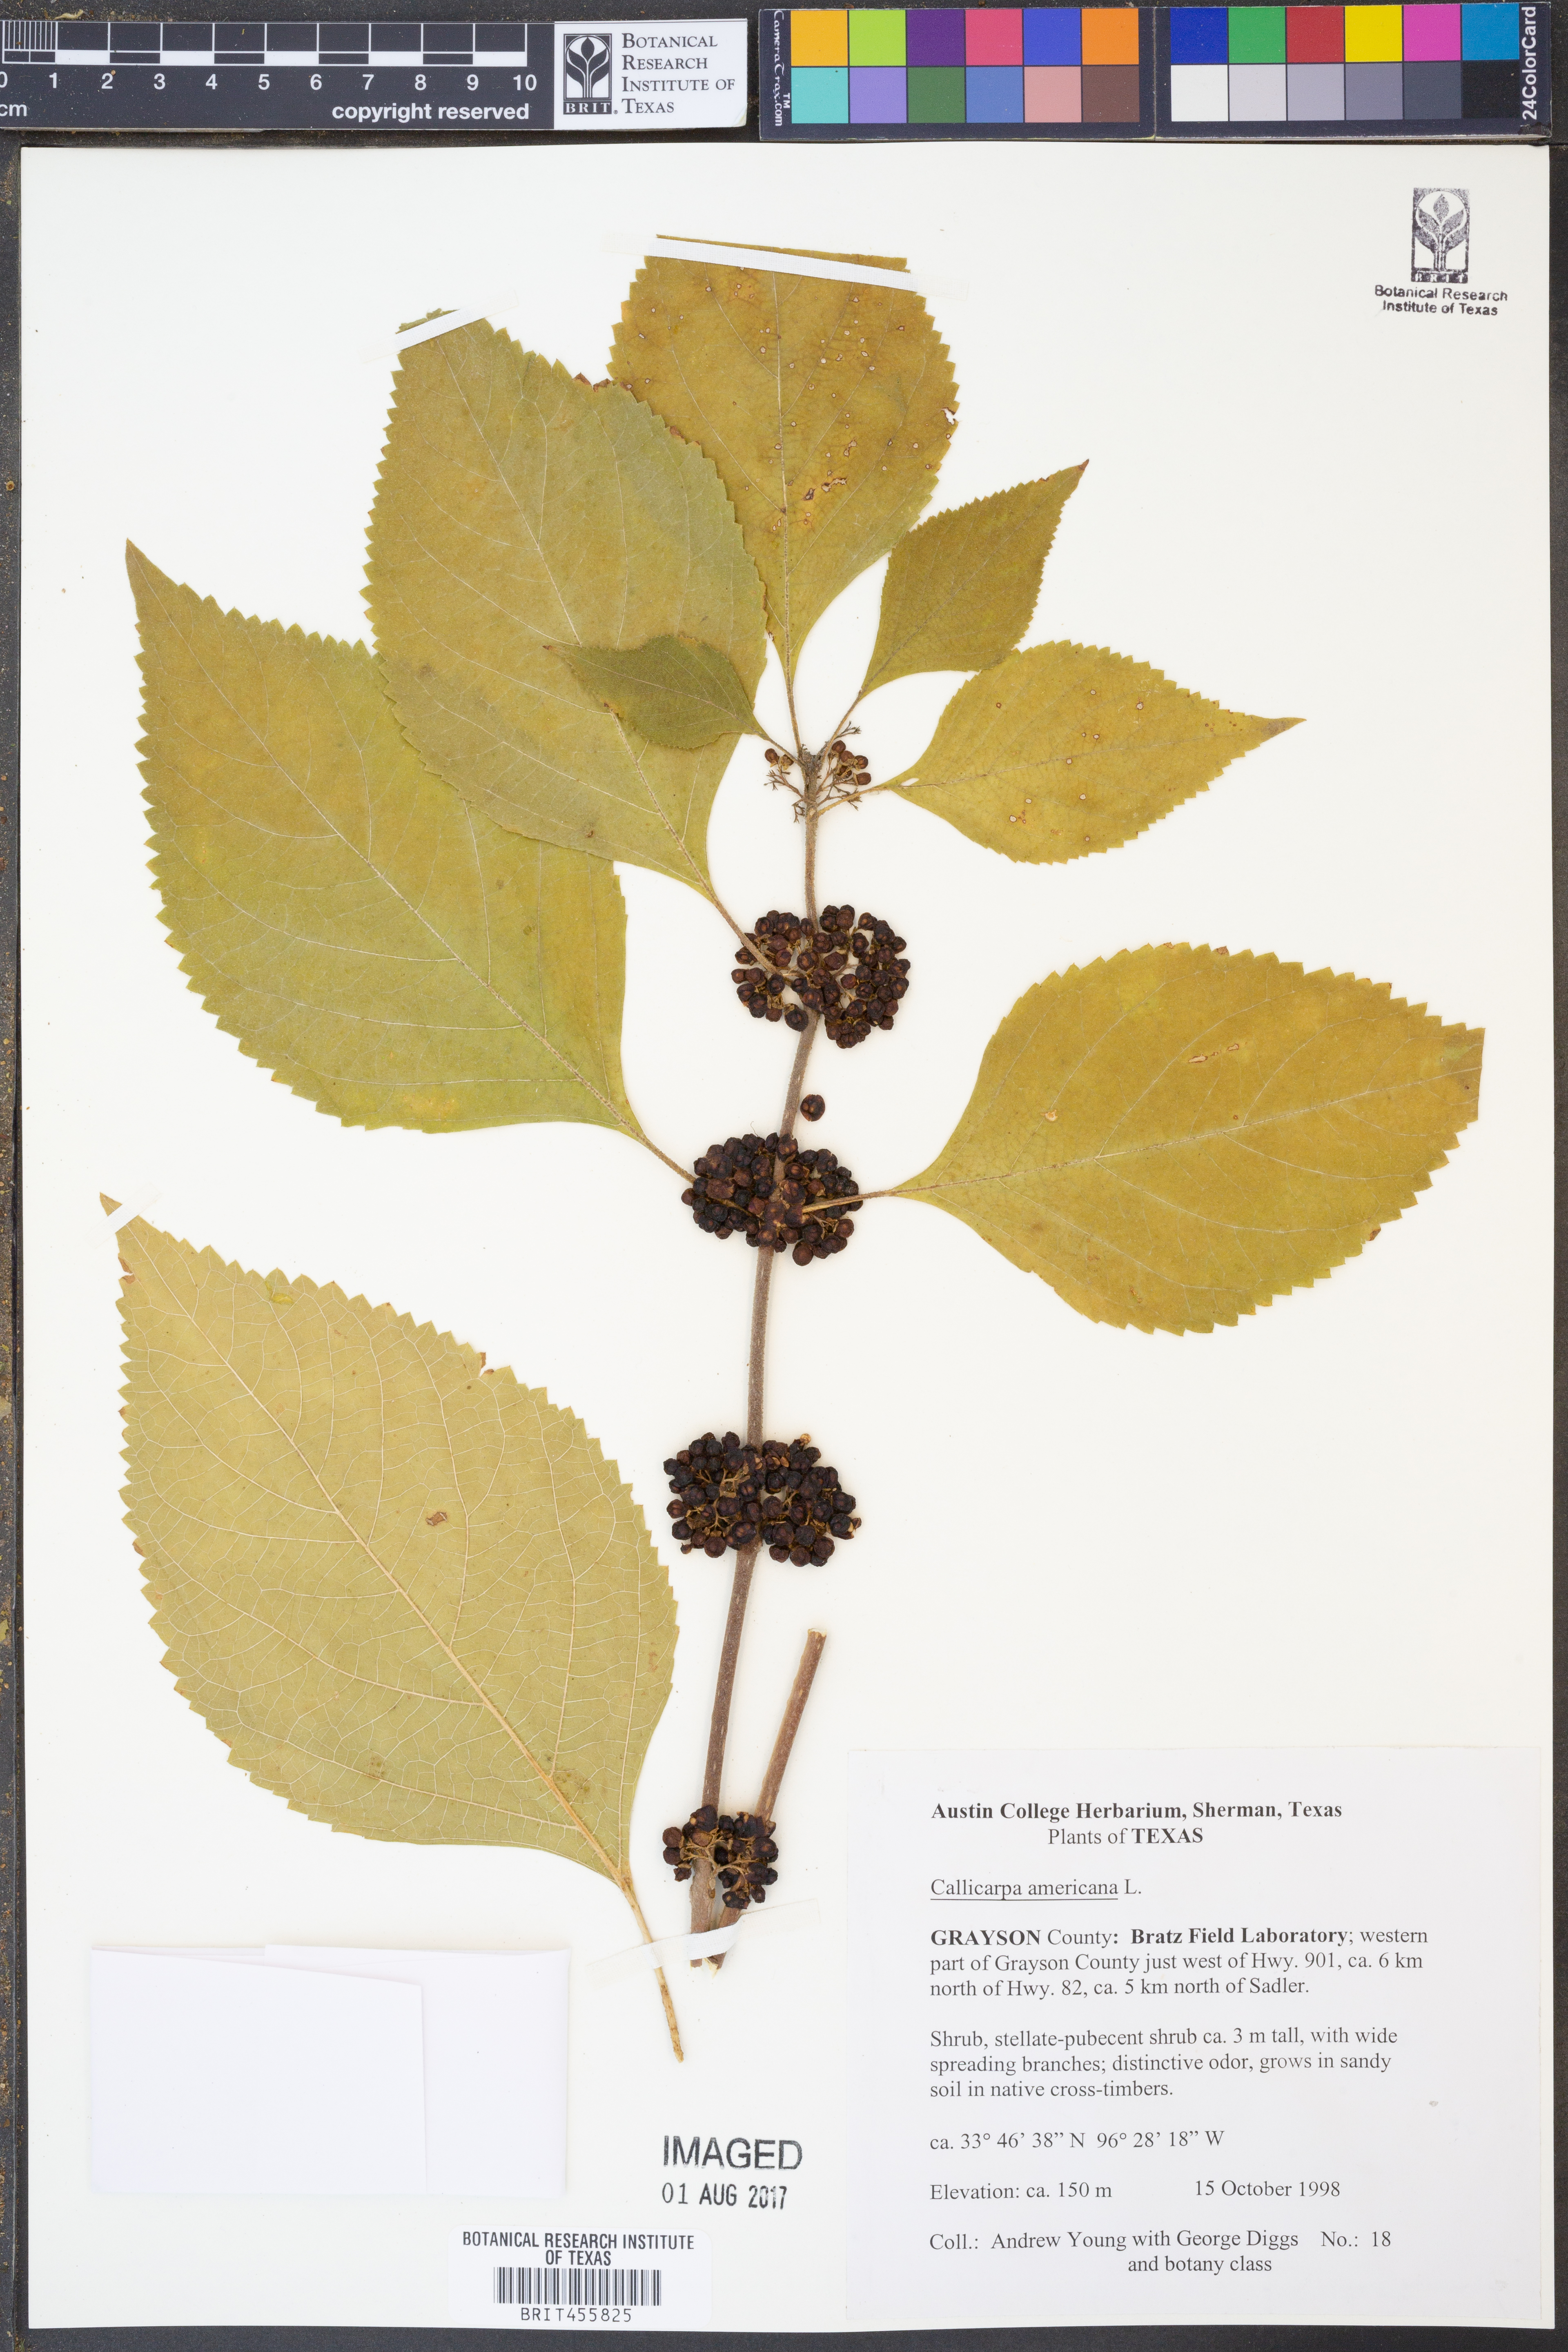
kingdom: Plantae
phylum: Tracheophyta
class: Magnoliopsida
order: Lamiales
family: Lamiaceae
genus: Callicarpa
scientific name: Callicarpa americana
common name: American beautyberry
